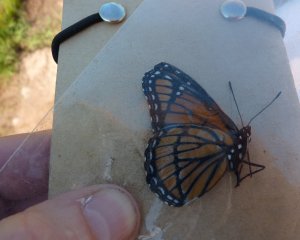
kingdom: Animalia
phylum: Arthropoda
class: Insecta
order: Lepidoptera
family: Nymphalidae
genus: Limenitis
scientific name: Limenitis archippus
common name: Viceroy
